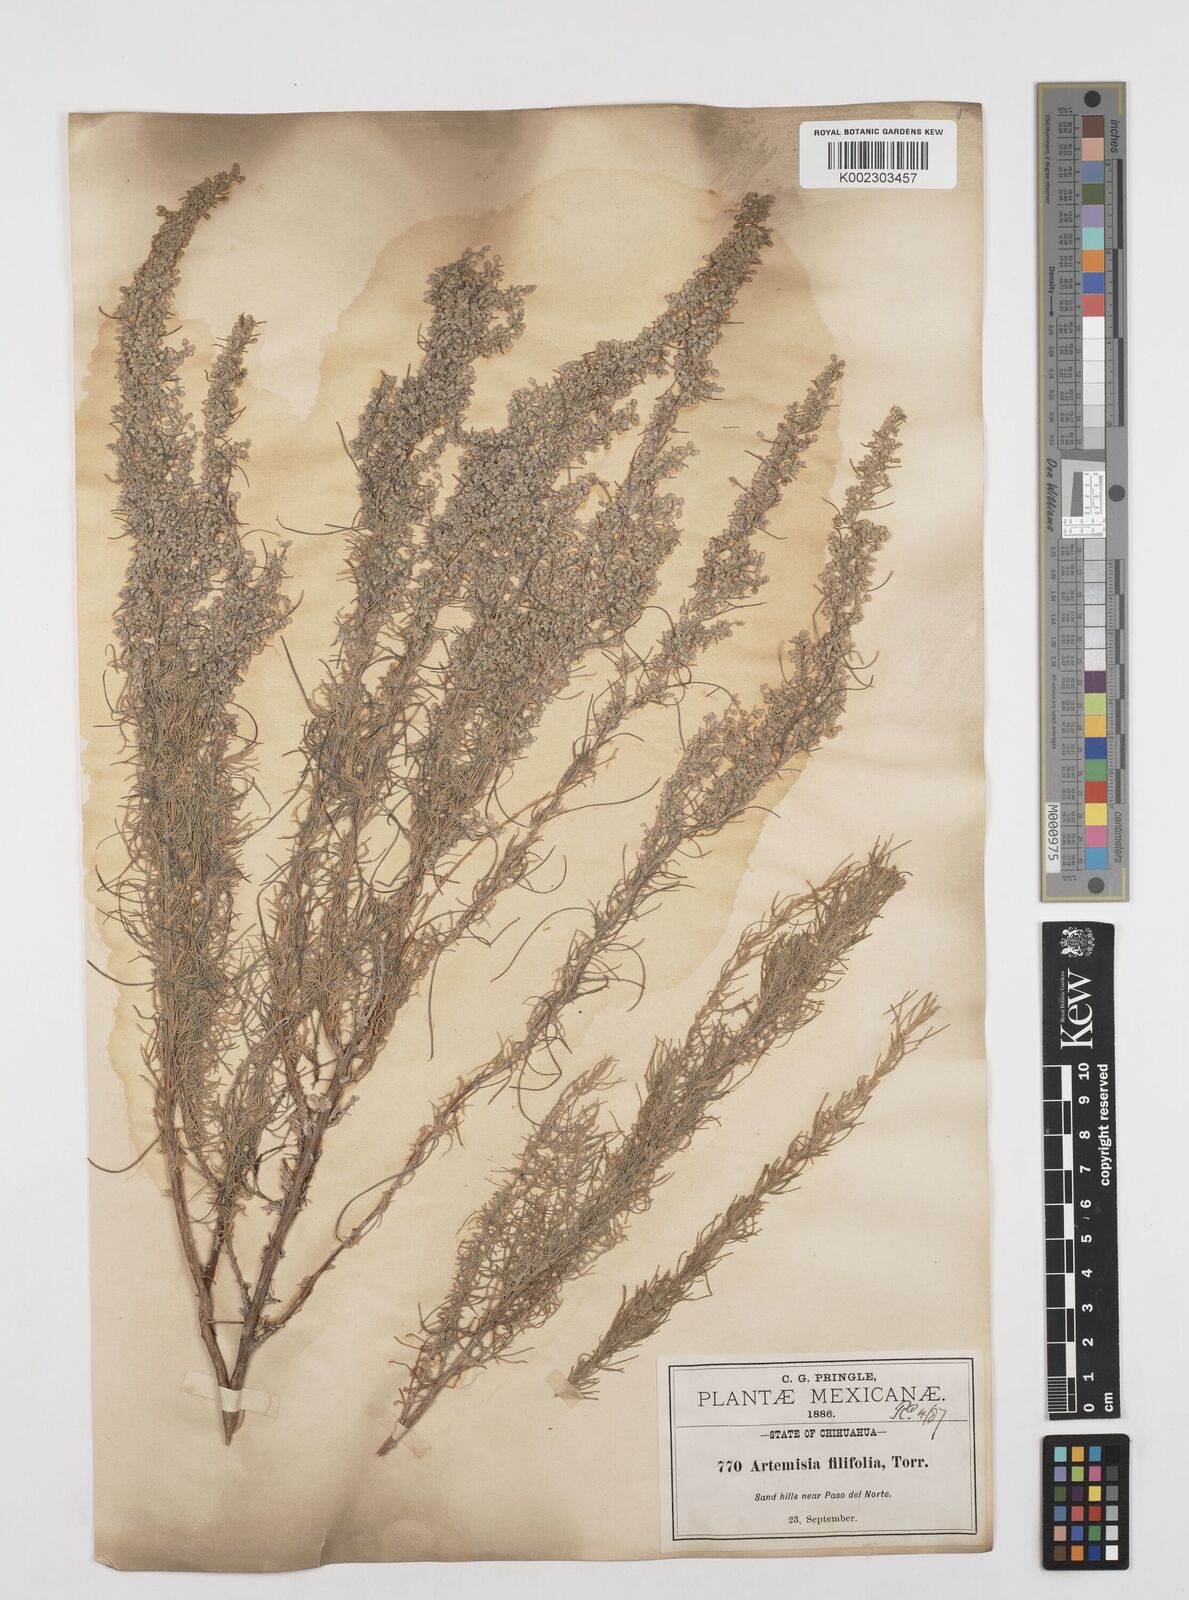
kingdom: Plantae
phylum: Tracheophyta
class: Magnoliopsida
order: Asterales
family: Asteraceae
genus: Artemisia
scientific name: Artemisia filifolia
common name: Sand-sage
